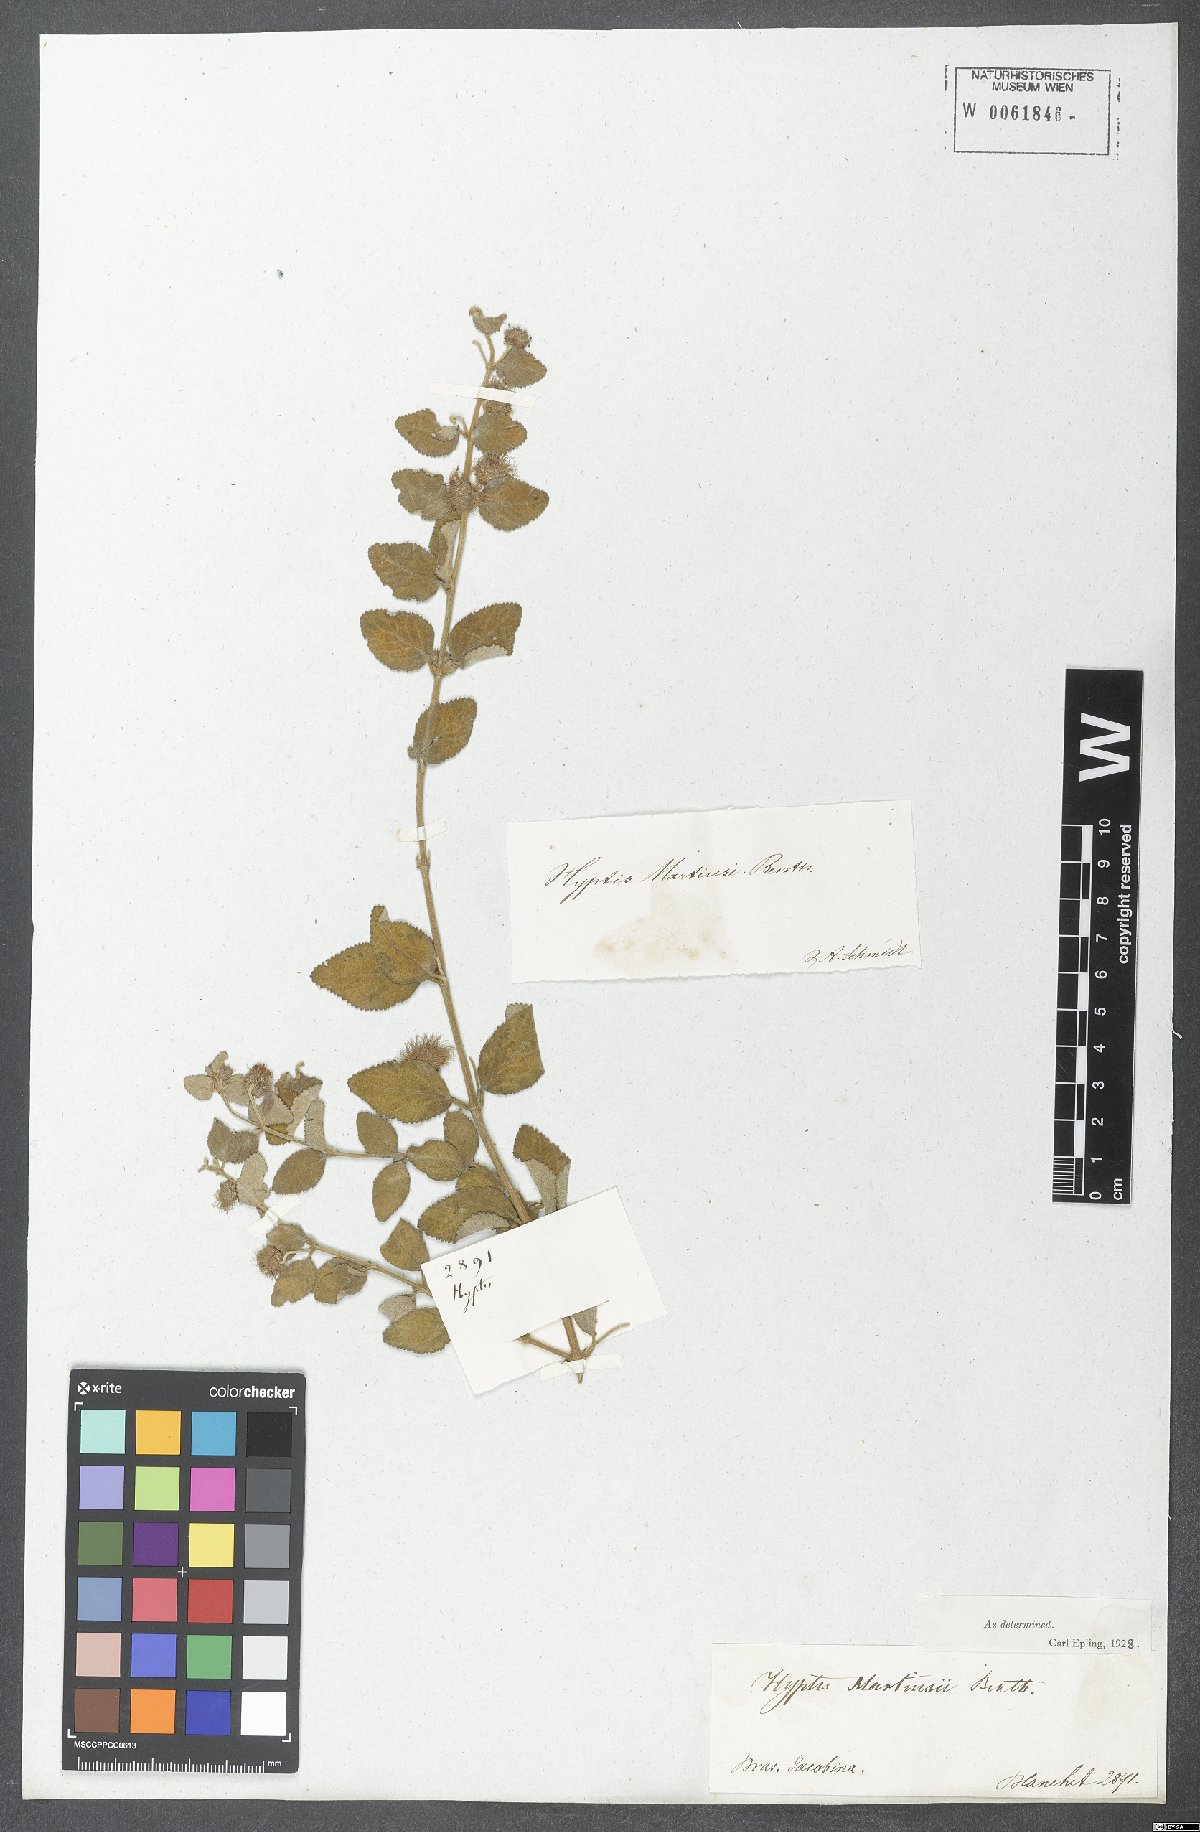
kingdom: Plantae
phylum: Tracheophyta
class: Magnoliopsida
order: Lamiales
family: Lamiaceae
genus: Medusantha
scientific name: Medusantha martiusii
